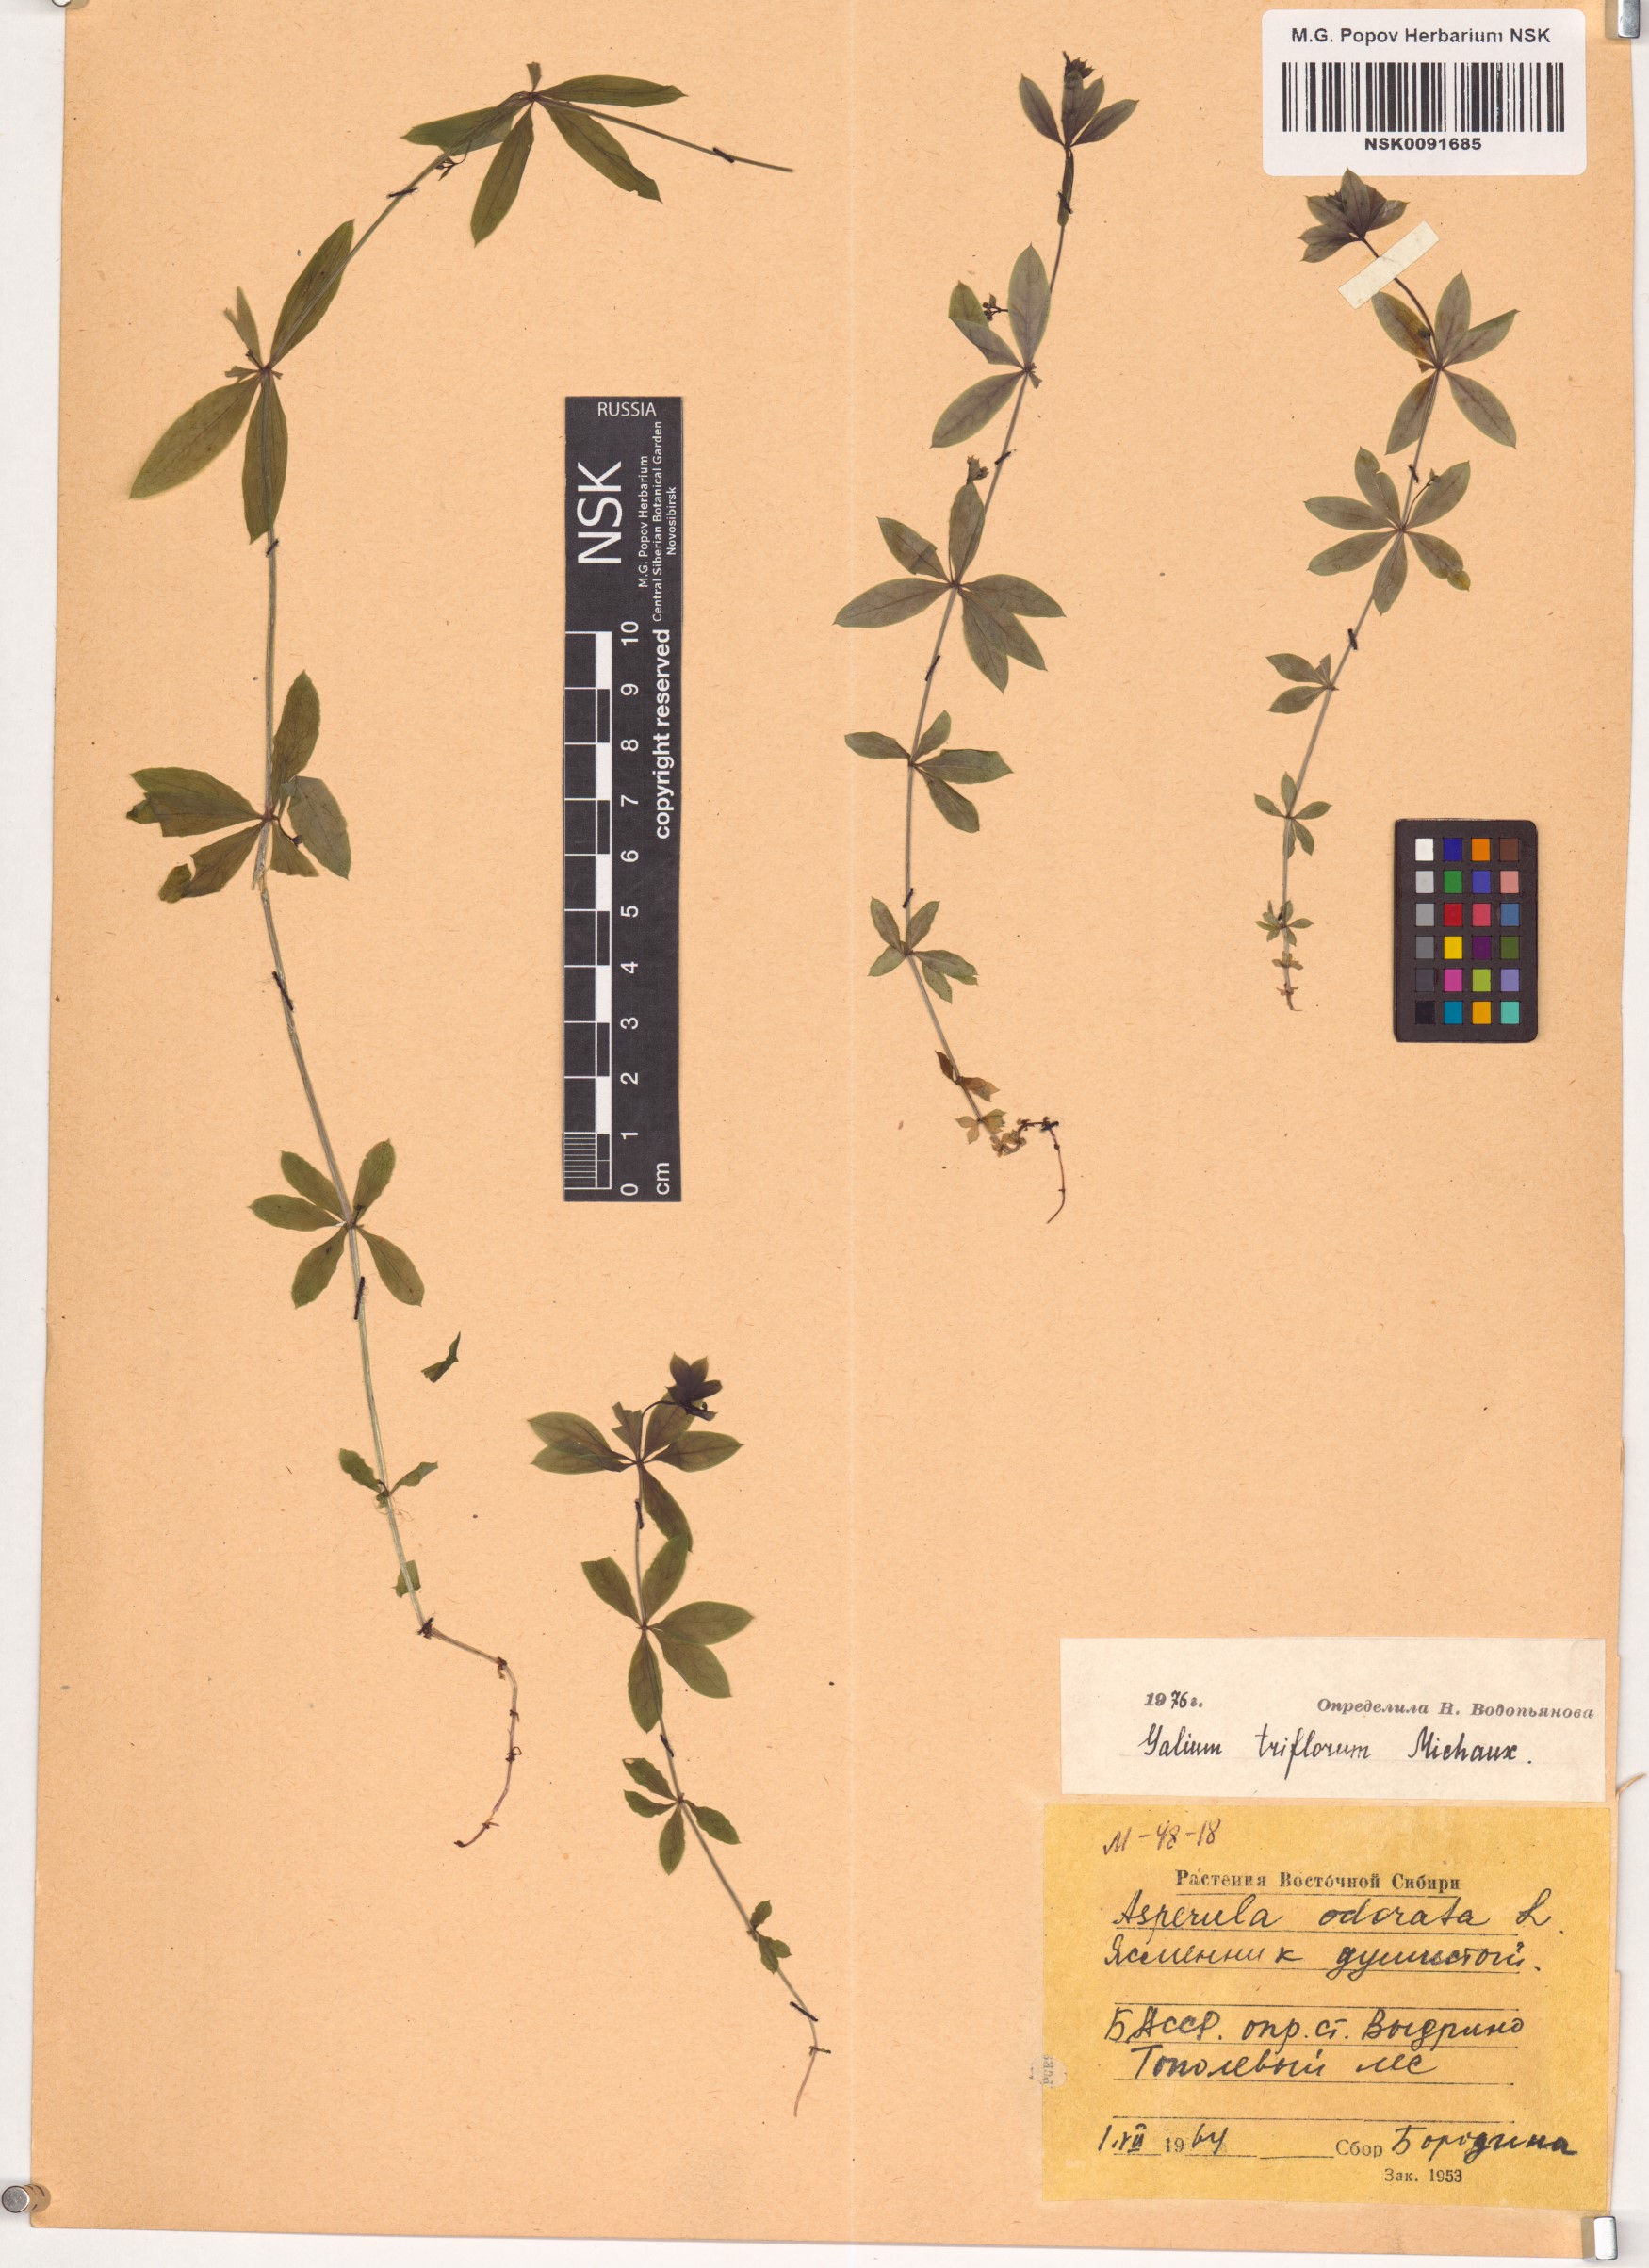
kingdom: Plantae
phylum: Tracheophyta
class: Magnoliopsida
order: Gentianales
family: Rubiaceae
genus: Galium
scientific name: Galium triflorum
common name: Fragrant bedstraw
